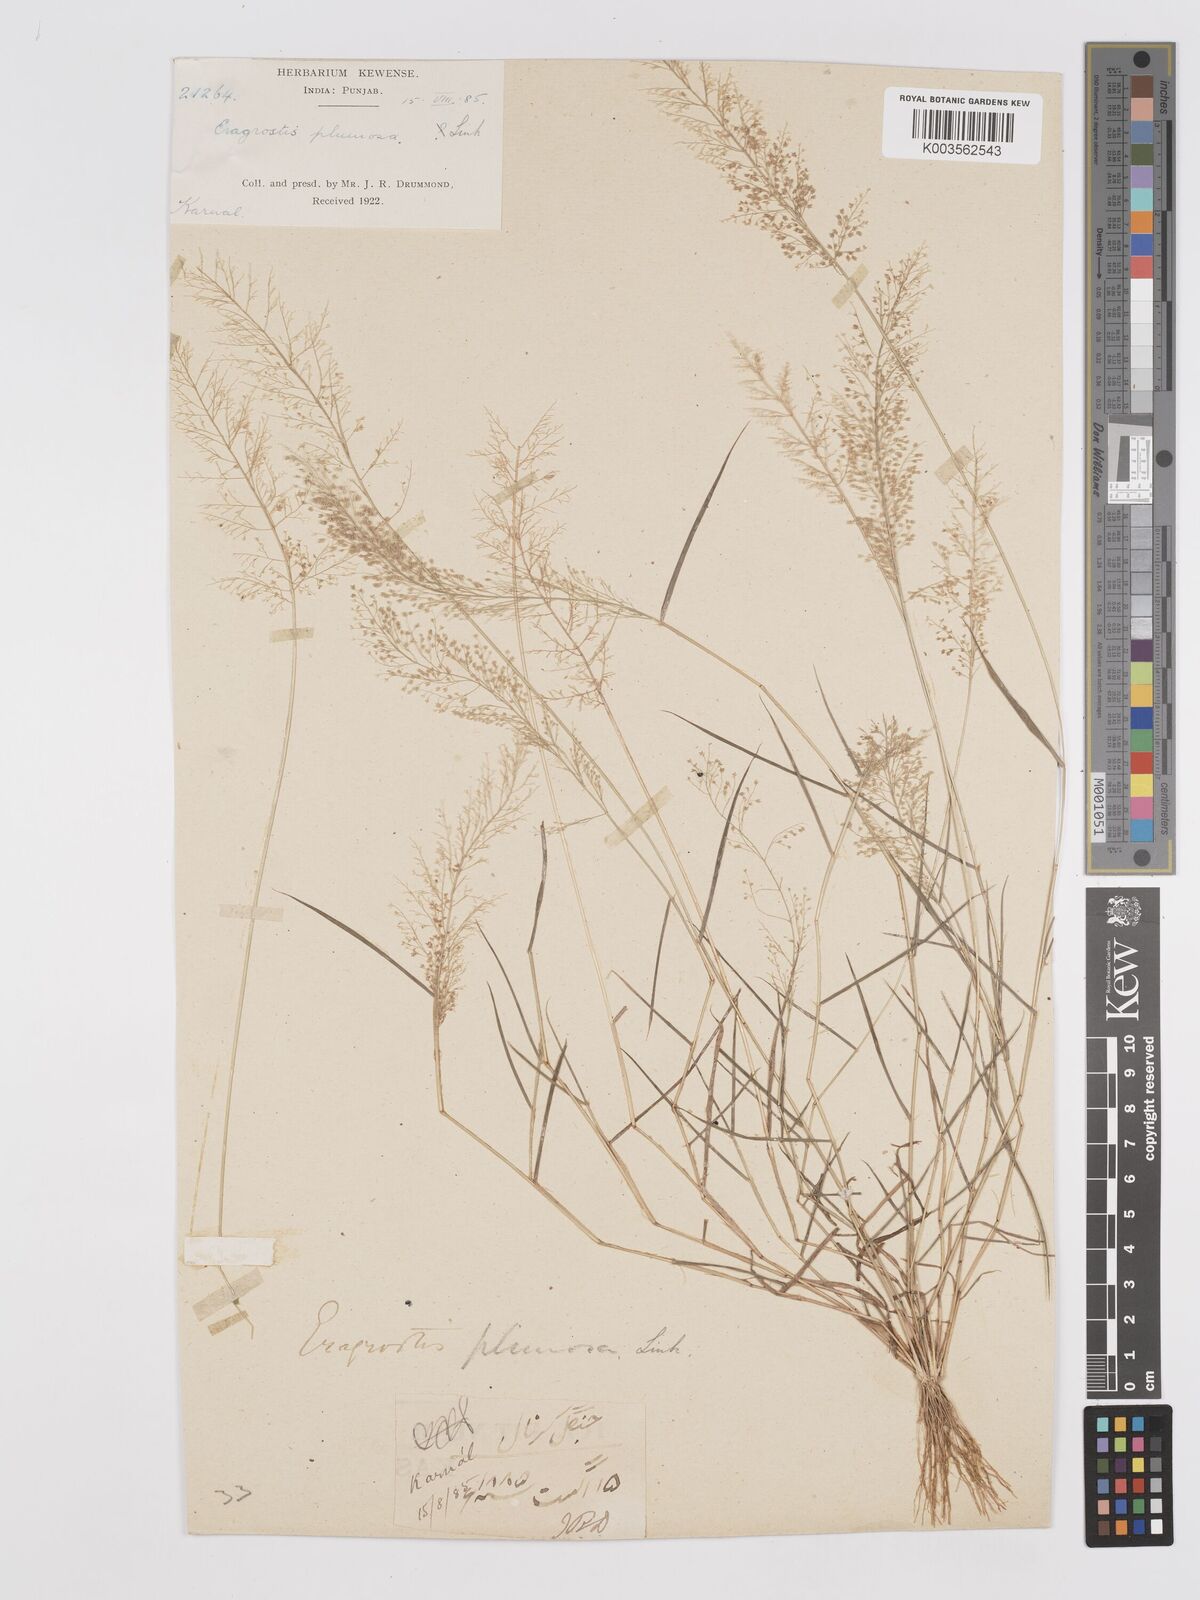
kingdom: Plantae
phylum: Tracheophyta
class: Liliopsida
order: Poales
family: Poaceae
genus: Eragrostis
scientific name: Eragrostis tenella
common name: Japanese lovegrass
